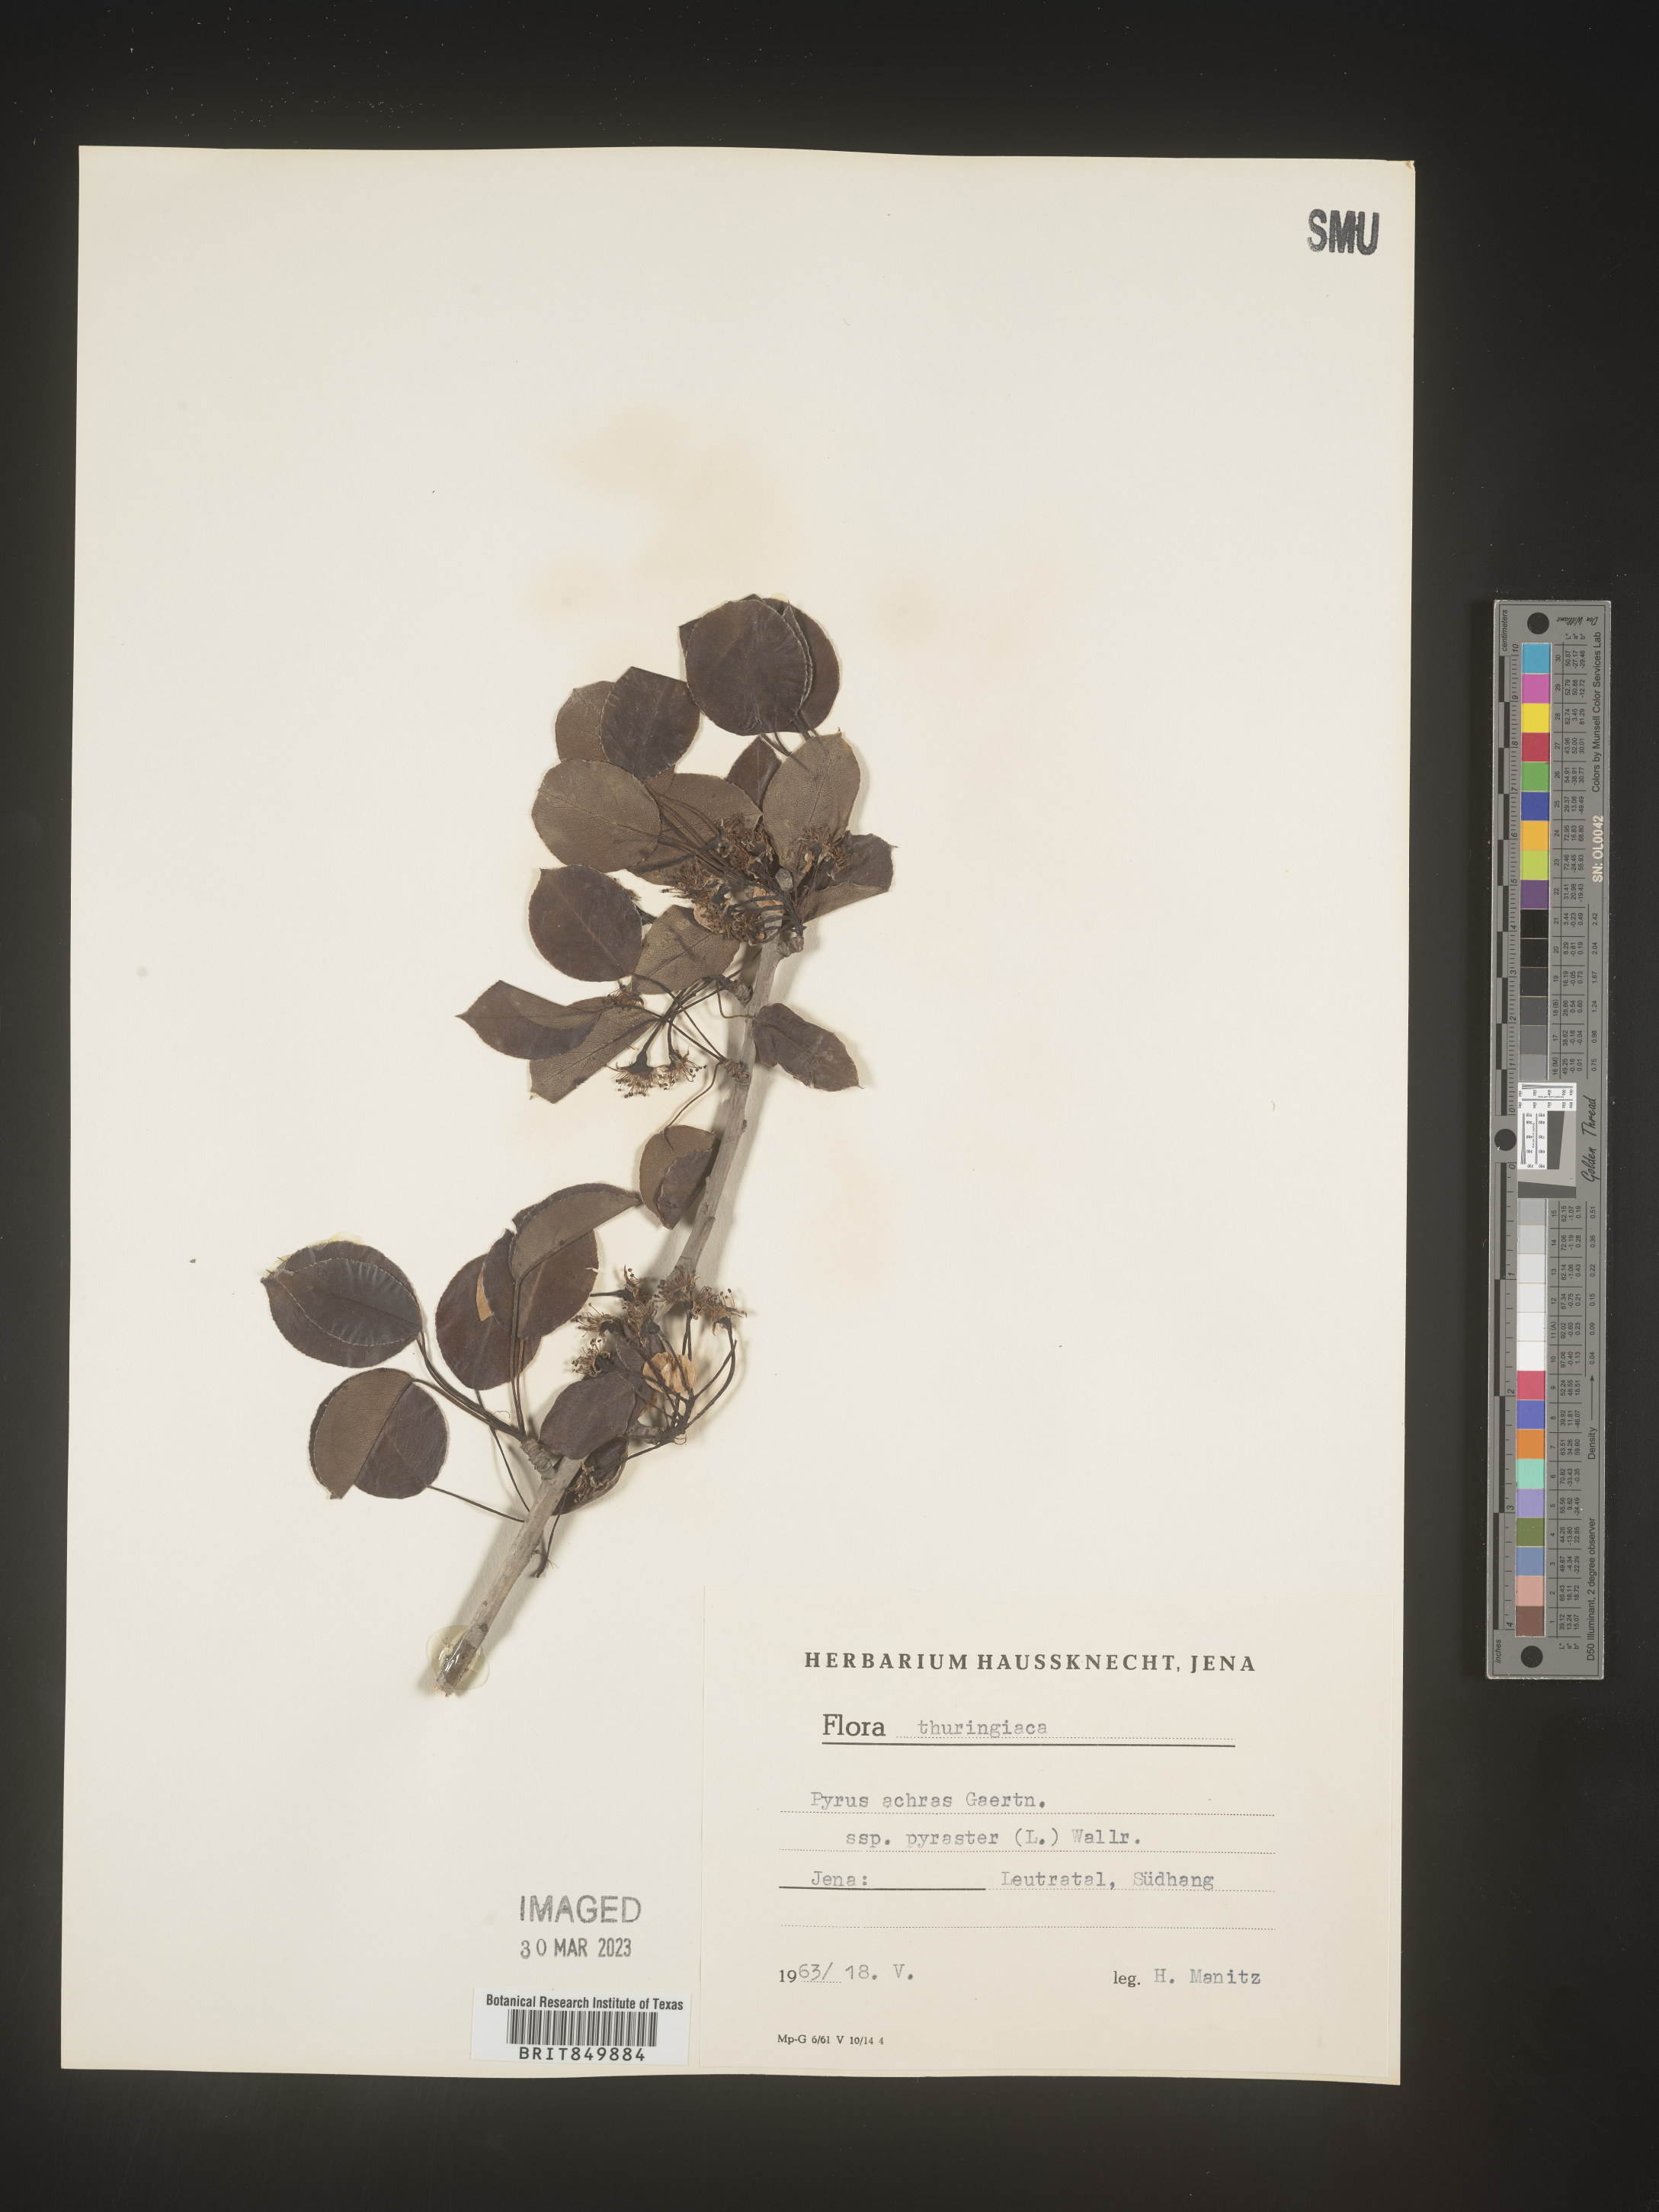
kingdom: Plantae
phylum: Tracheophyta
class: Magnoliopsida
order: Rosales
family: Rosaceae
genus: Pyrus
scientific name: Pyrus
